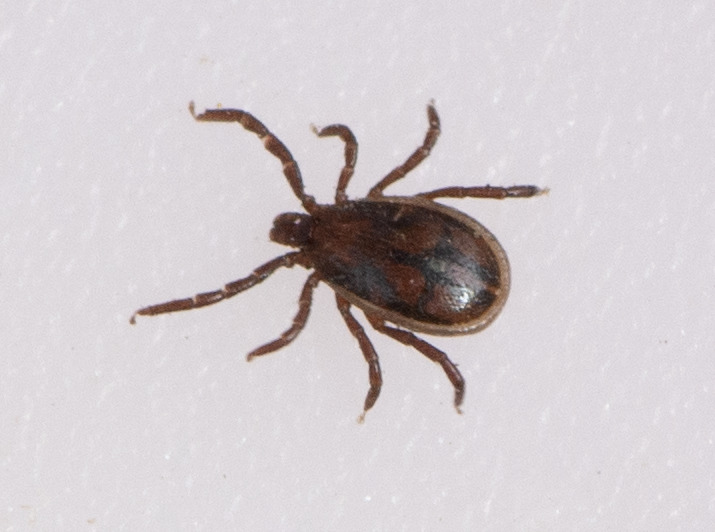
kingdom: Animalia
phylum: Arthropoda
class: Arachnida
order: Ixodida
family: Ixodidae
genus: Ixodes
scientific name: Ixodes ricinus
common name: Skovflåt
